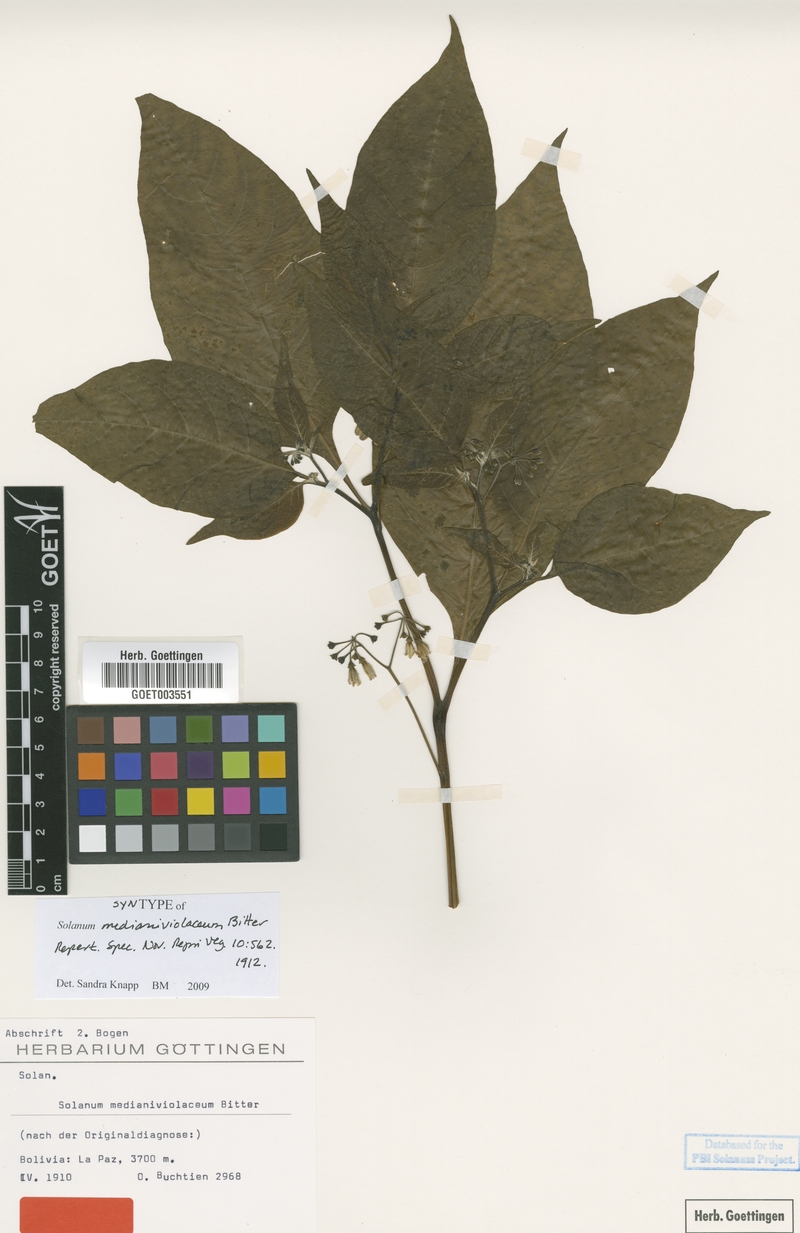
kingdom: Plantae
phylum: Tracheophyta
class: Magnoliopsida
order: Solanales
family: Solanaceae
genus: Solanum
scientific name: Solanum polytrichostylum
